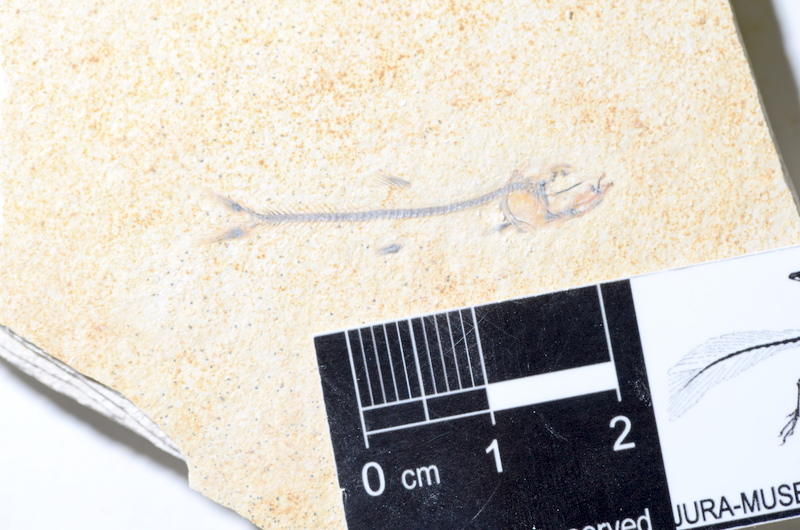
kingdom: Animalia
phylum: Chordata
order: Salmoniformes
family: Orthogonikleithridae
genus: Orthogonikleithrus
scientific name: Orthogonikleithrus hoelli
